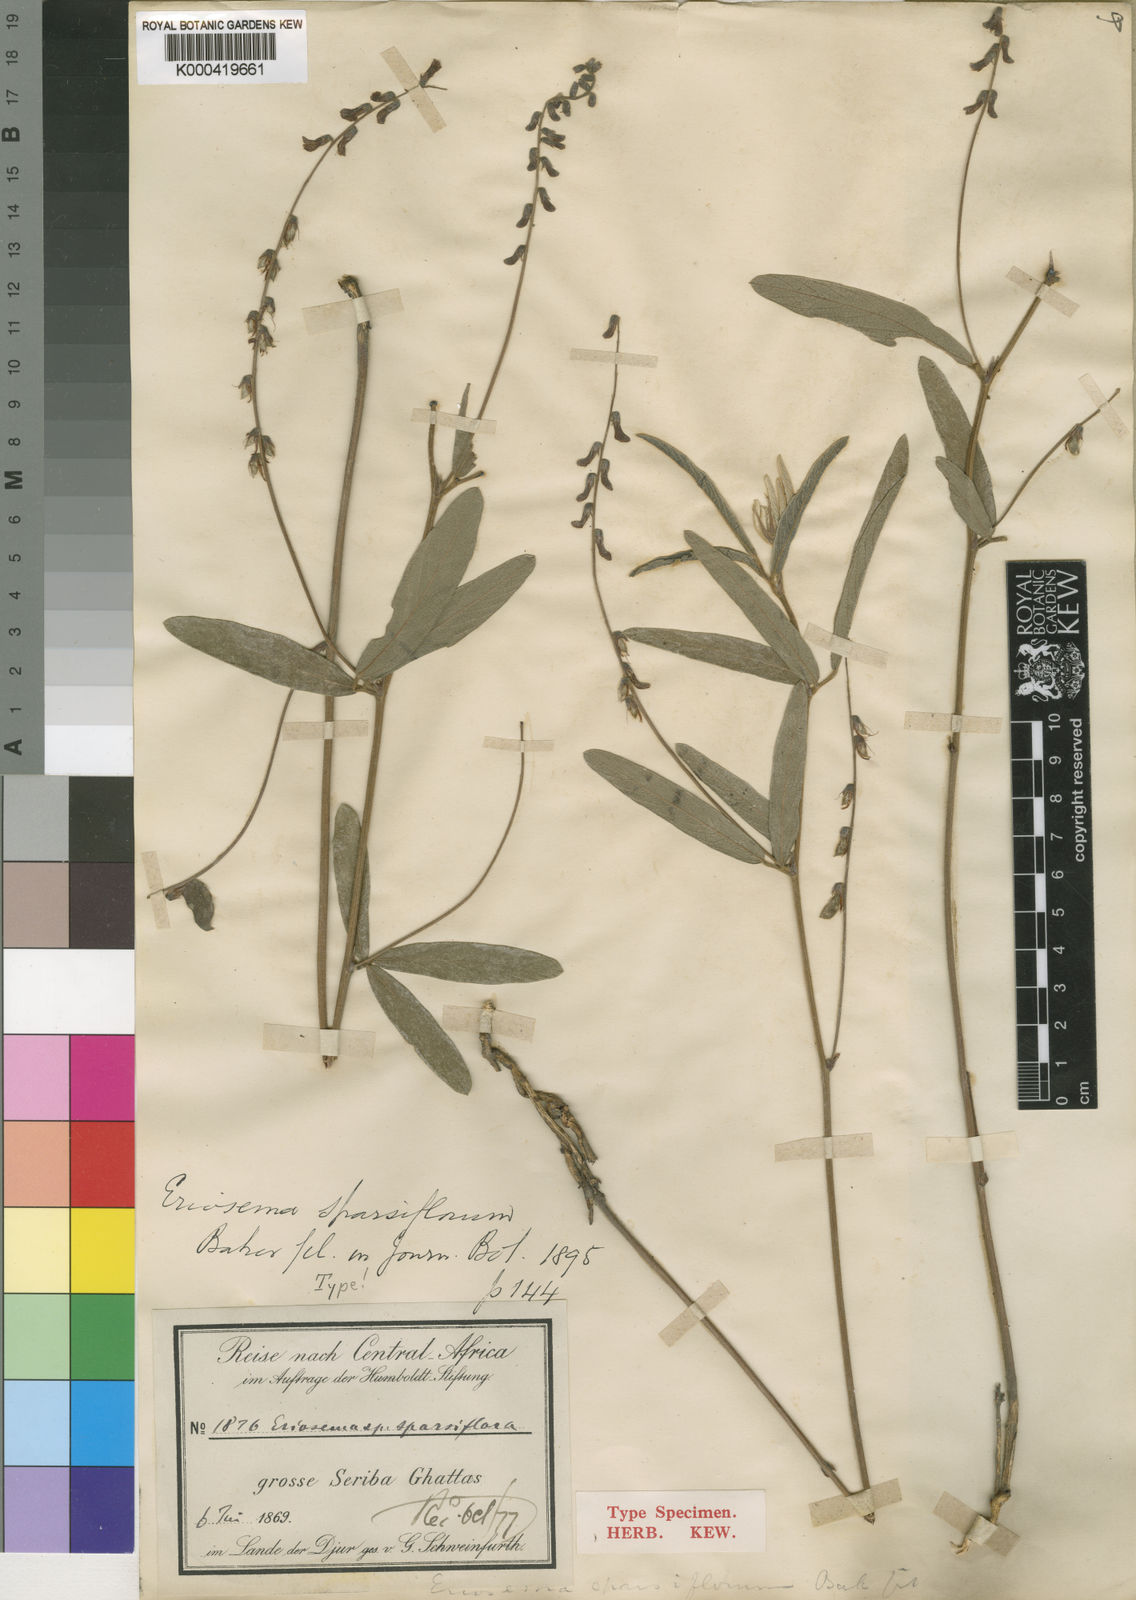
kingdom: Plantae
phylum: Tracheophyta
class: Magnoliopsida
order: Fabales
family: Fabaceae
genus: Eriosema
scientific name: Eriosema sparsiflorum
